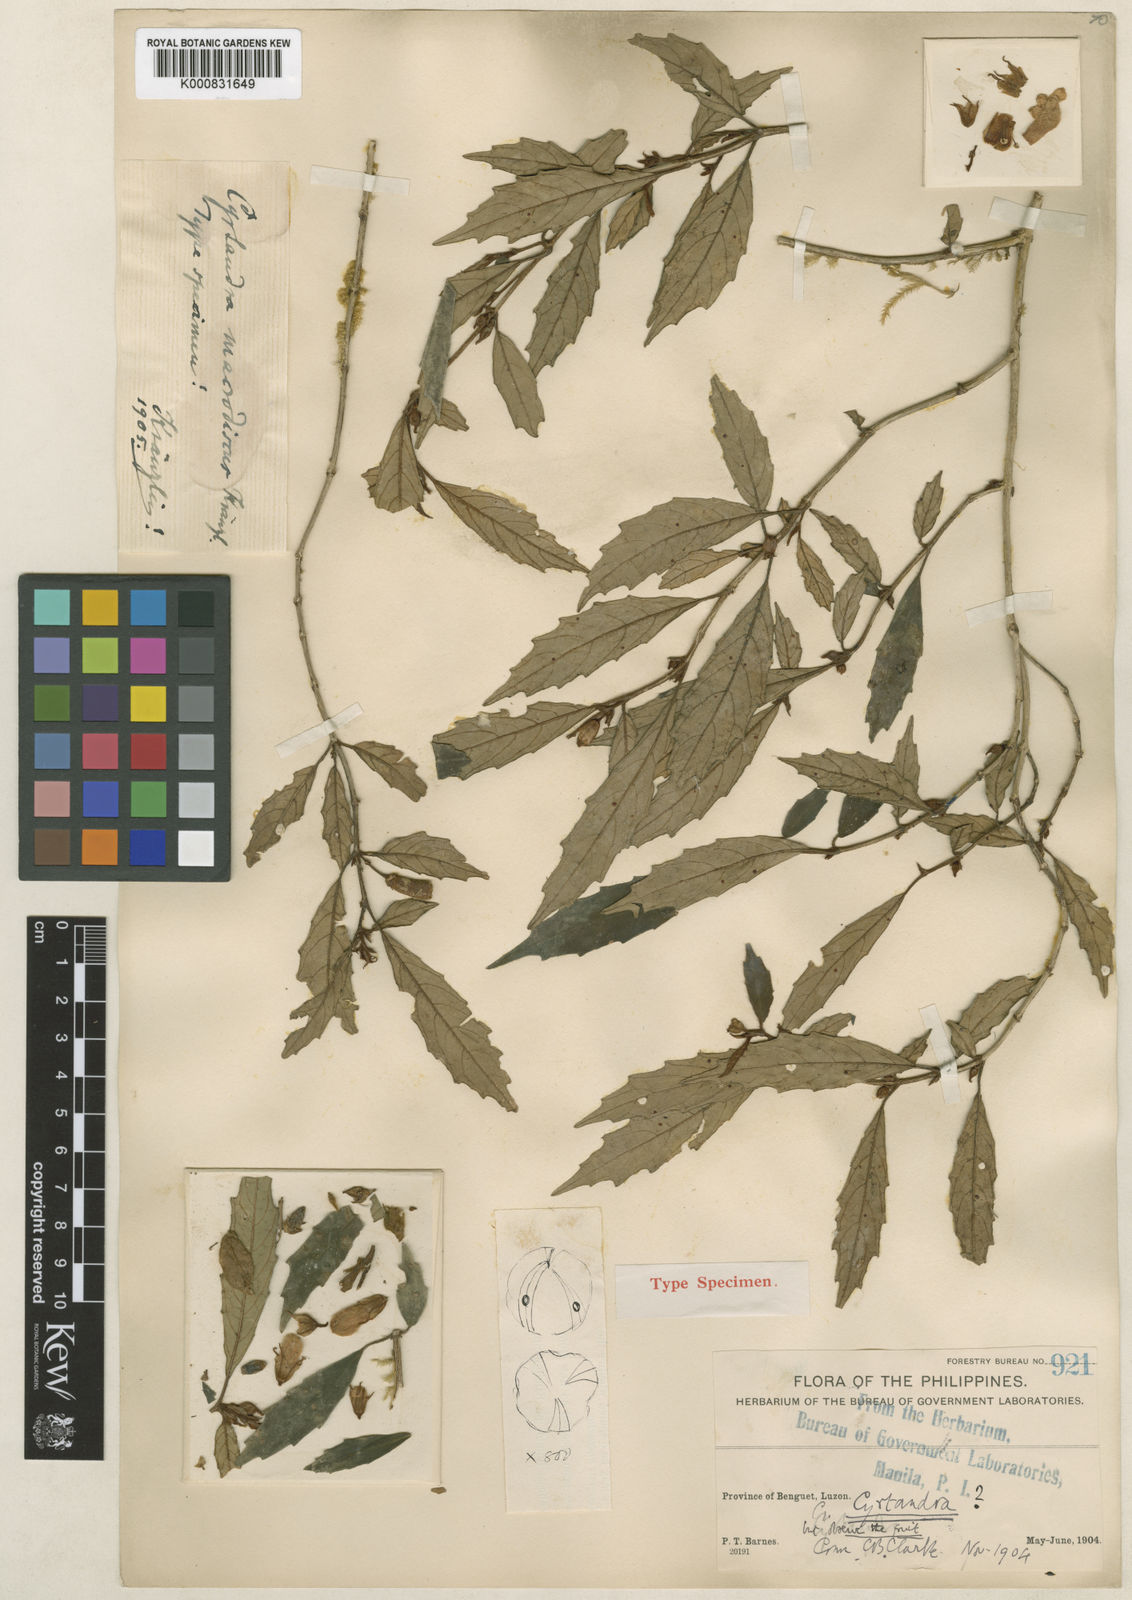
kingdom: Plantae
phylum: Tracheophyta
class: Magnoliopsida
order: Lamiales
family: Gesneriaceae
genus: Cyrtandra
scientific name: Cyrtandra macrodiscus
